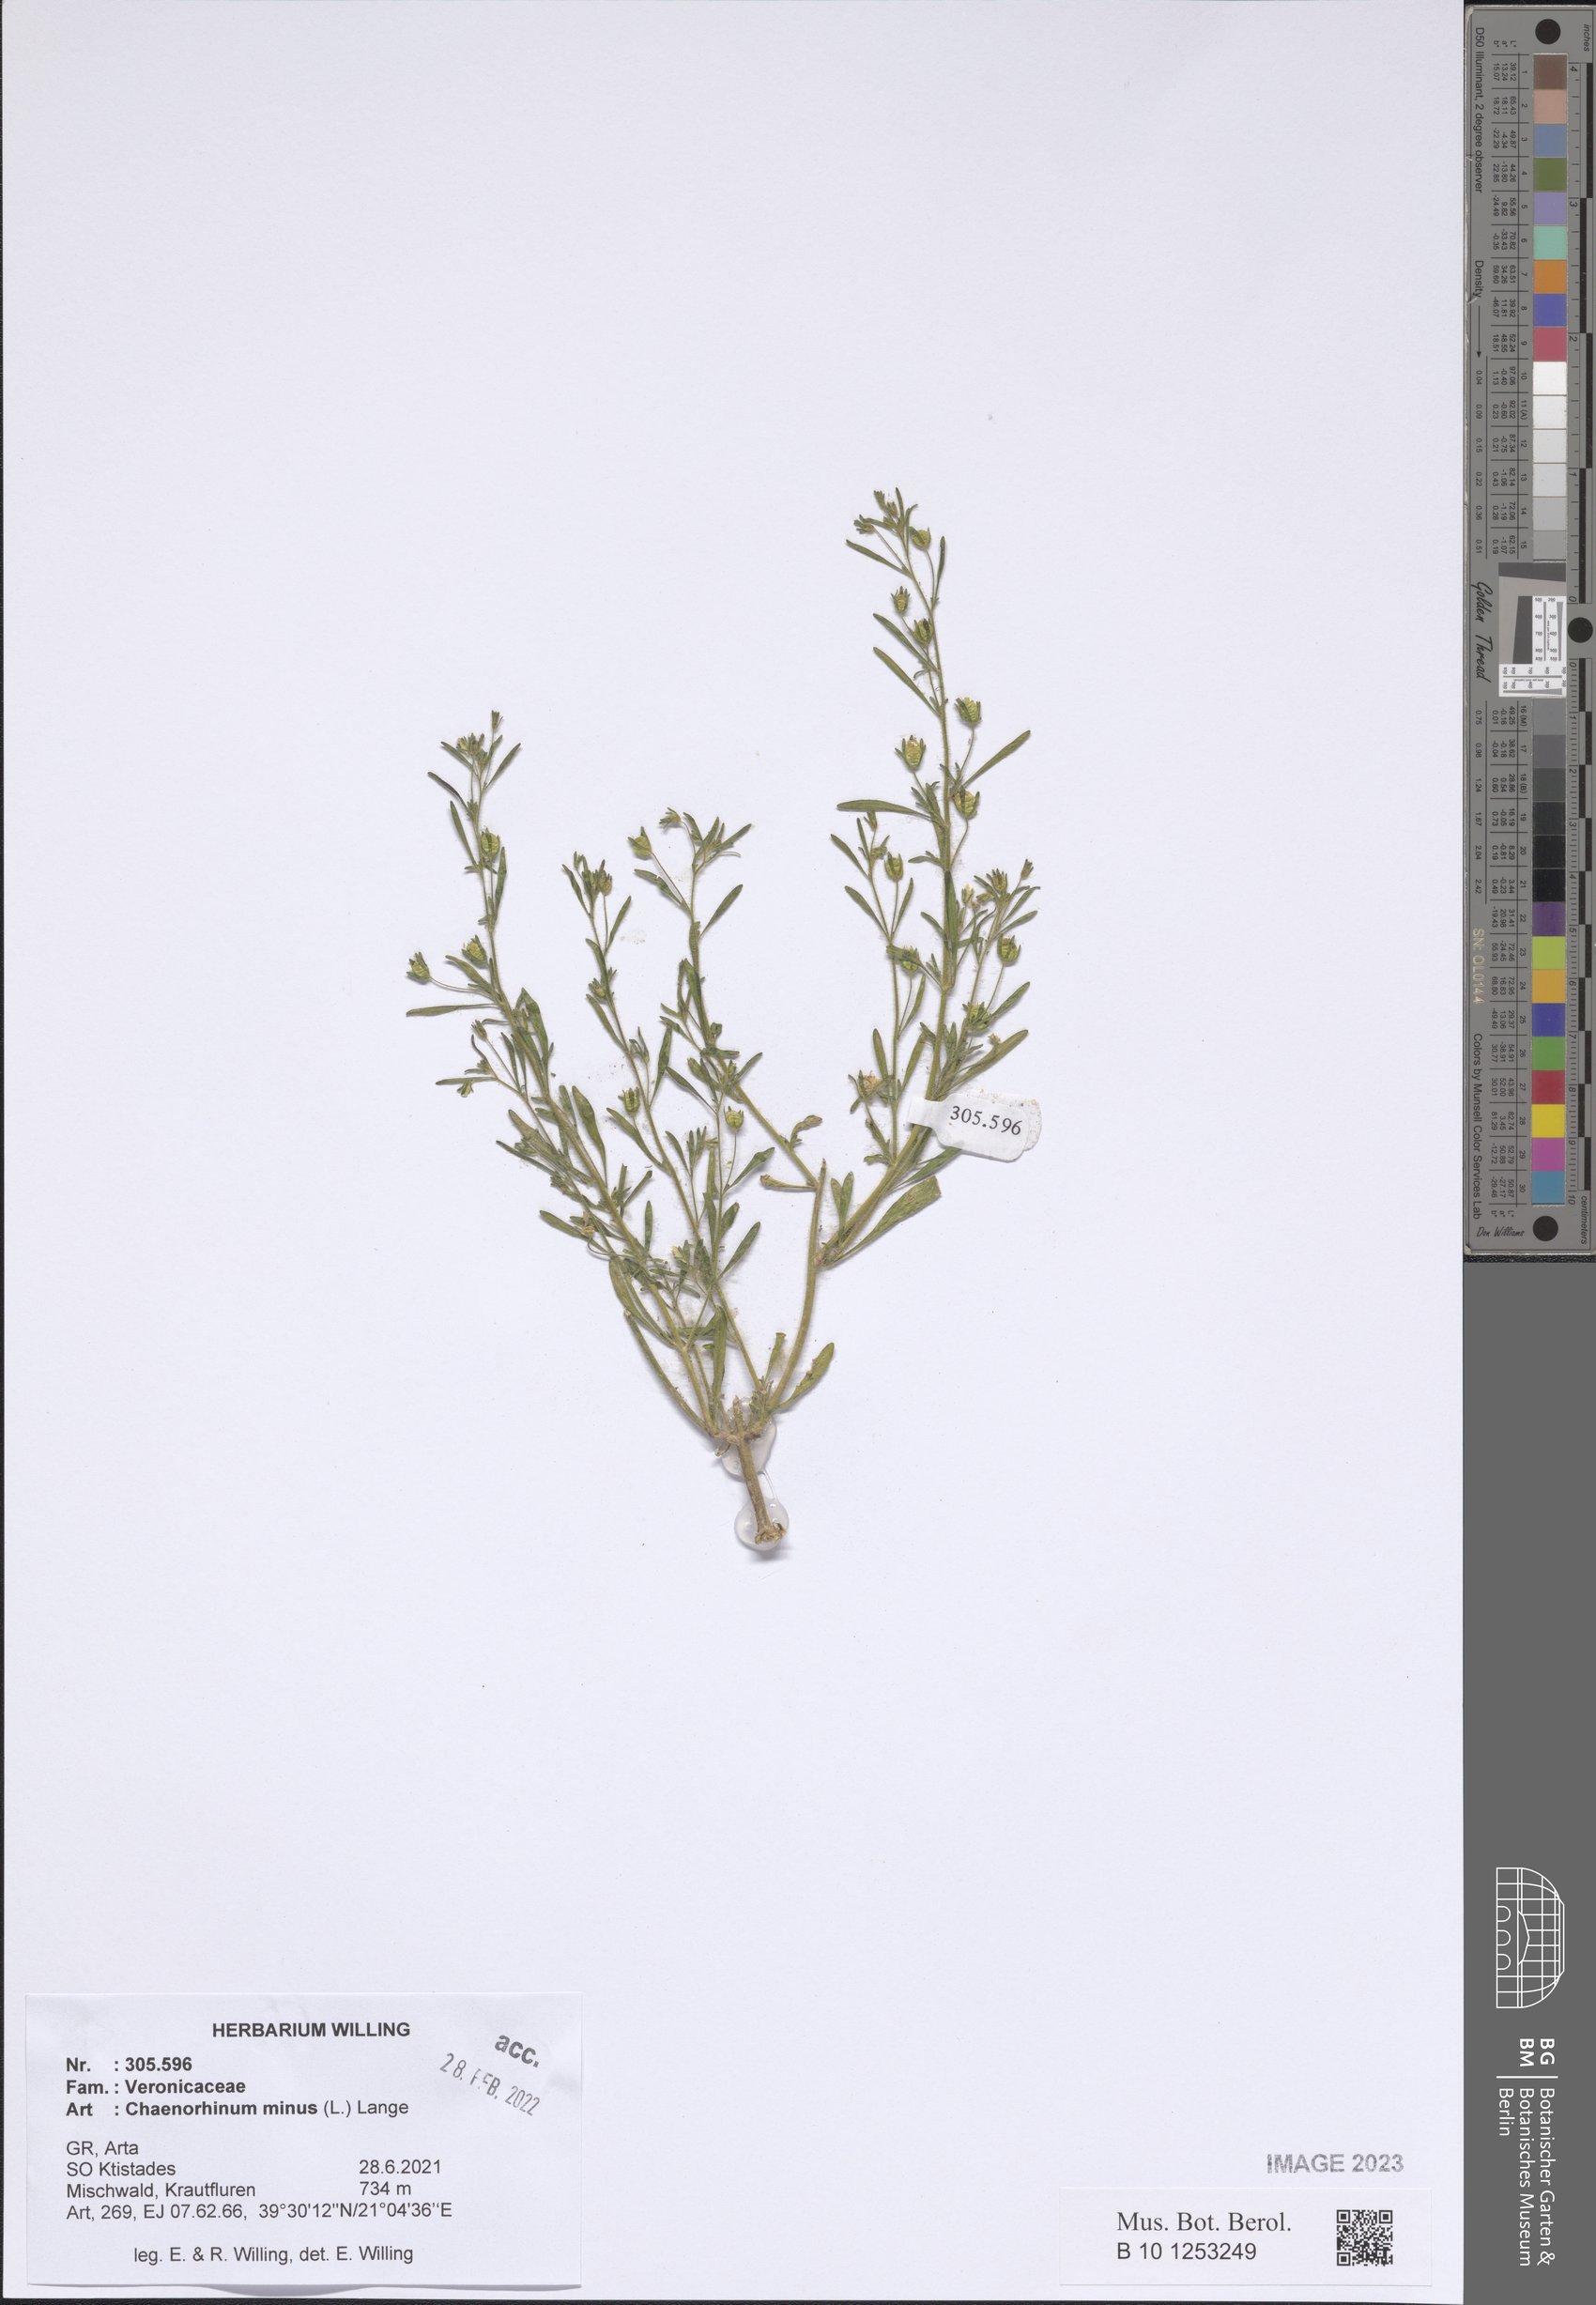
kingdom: Plantae
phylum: Tracheophyta
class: Magnoliopsida
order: Lamiales
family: Plantaginaceae
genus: Chaenorhinum
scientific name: Chaenorhinum minus
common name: Dwarf snapdragon
